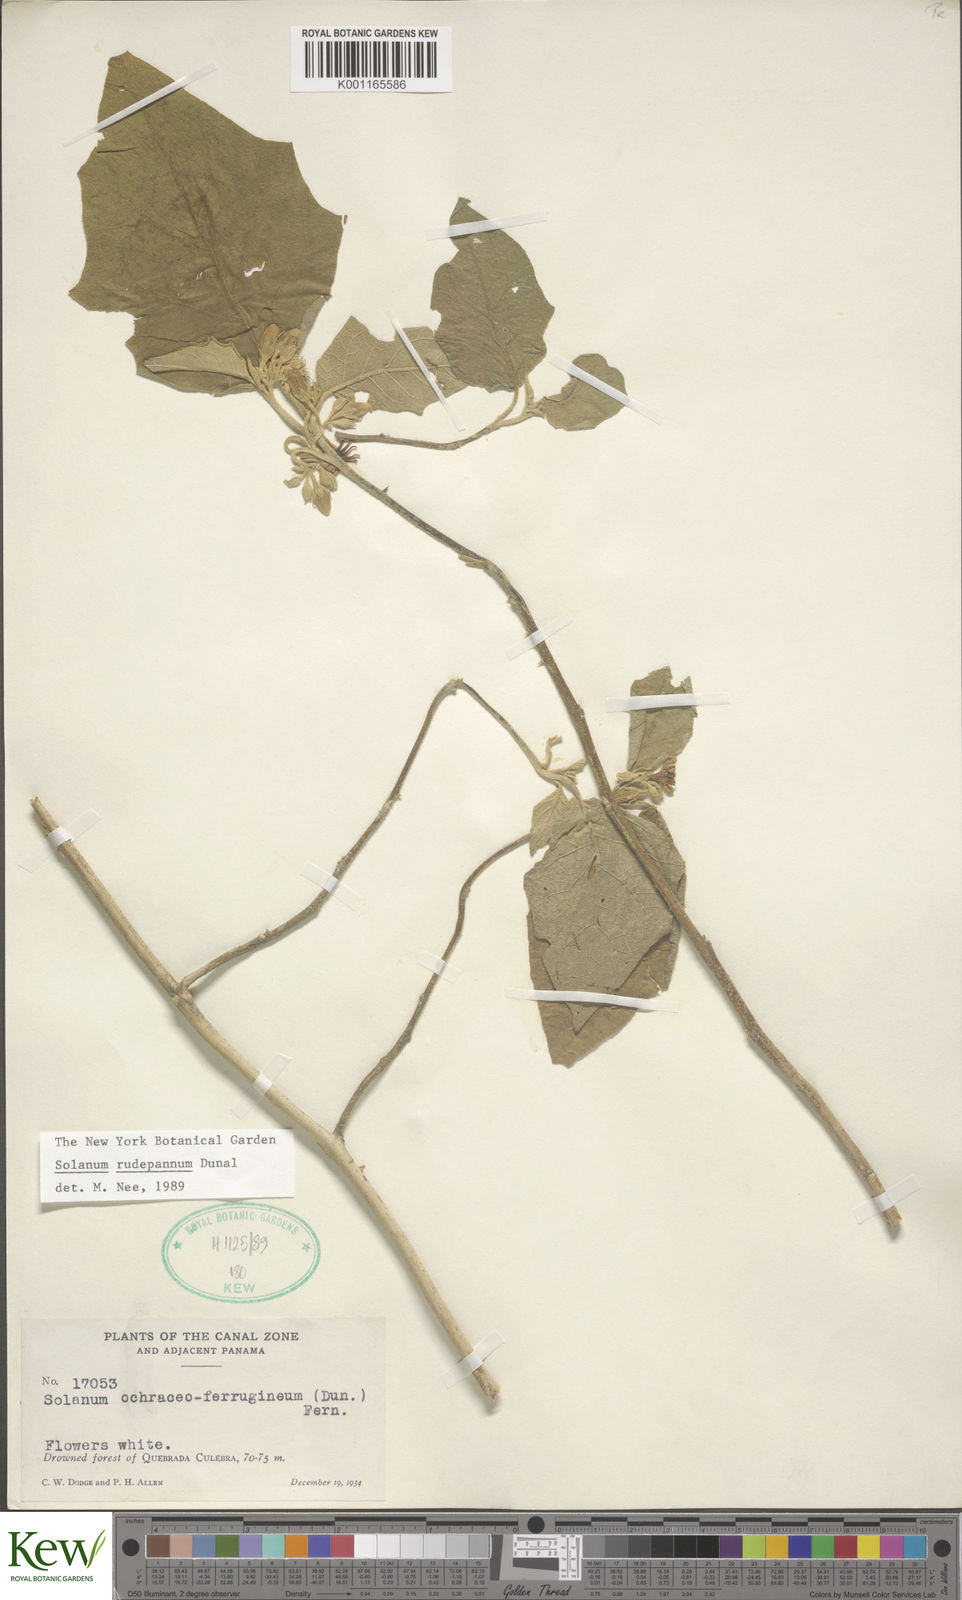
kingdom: Plantae
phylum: Tracheophyta
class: Magnoliopsida
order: Solanales
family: Solanaceae
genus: Solanum
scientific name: Solanum rude-pannum
